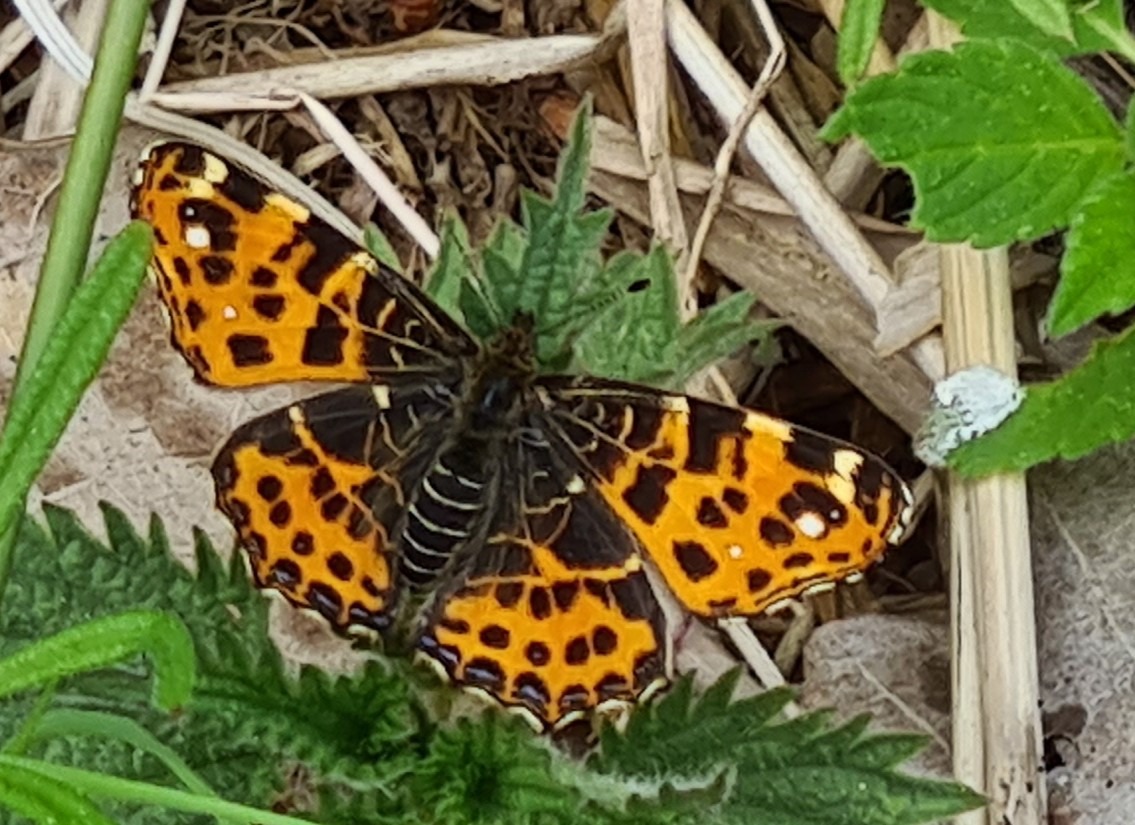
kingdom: Animalia
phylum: Arthropoda
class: Insecta
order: Lepidoptera
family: Nymphalidae
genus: Araschnia
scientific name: Araschnia levana
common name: Nældesommerfugl
